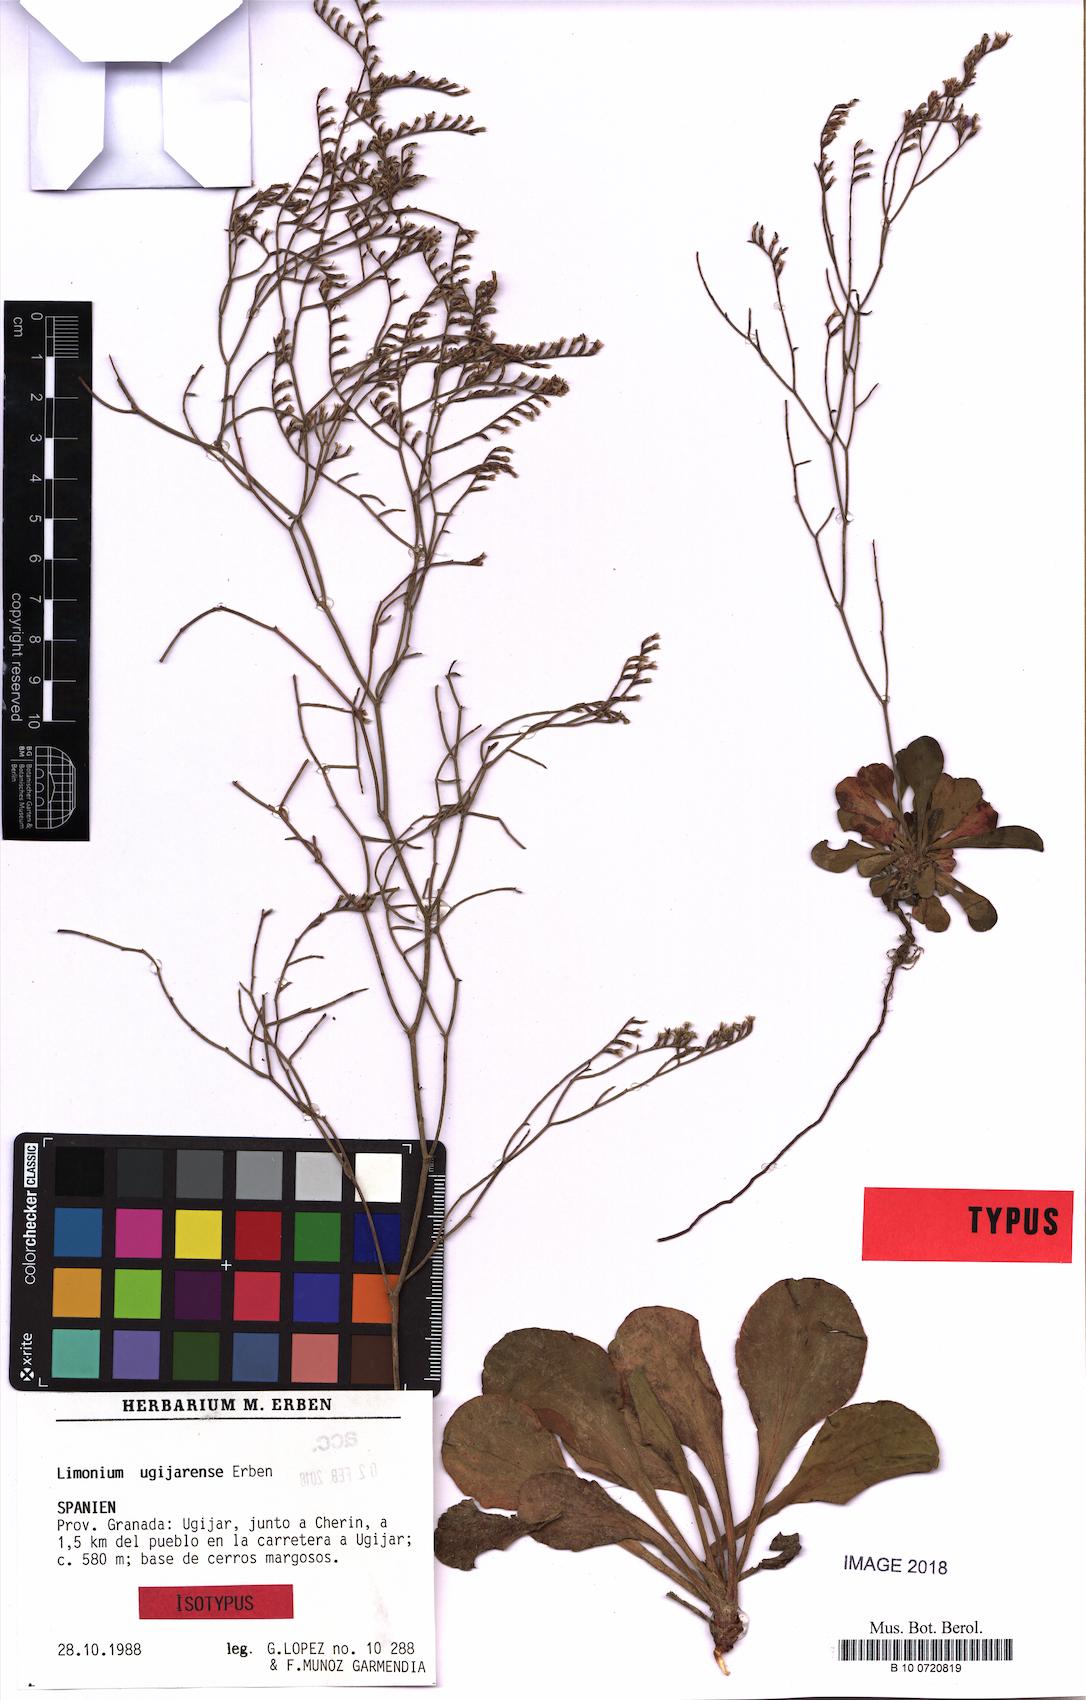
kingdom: Plantae
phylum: Tracheophyta
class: Magnoliopsida
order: Caryophyllales
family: Plumbaginaceae
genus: Limonium
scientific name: Limonium ugijarense
